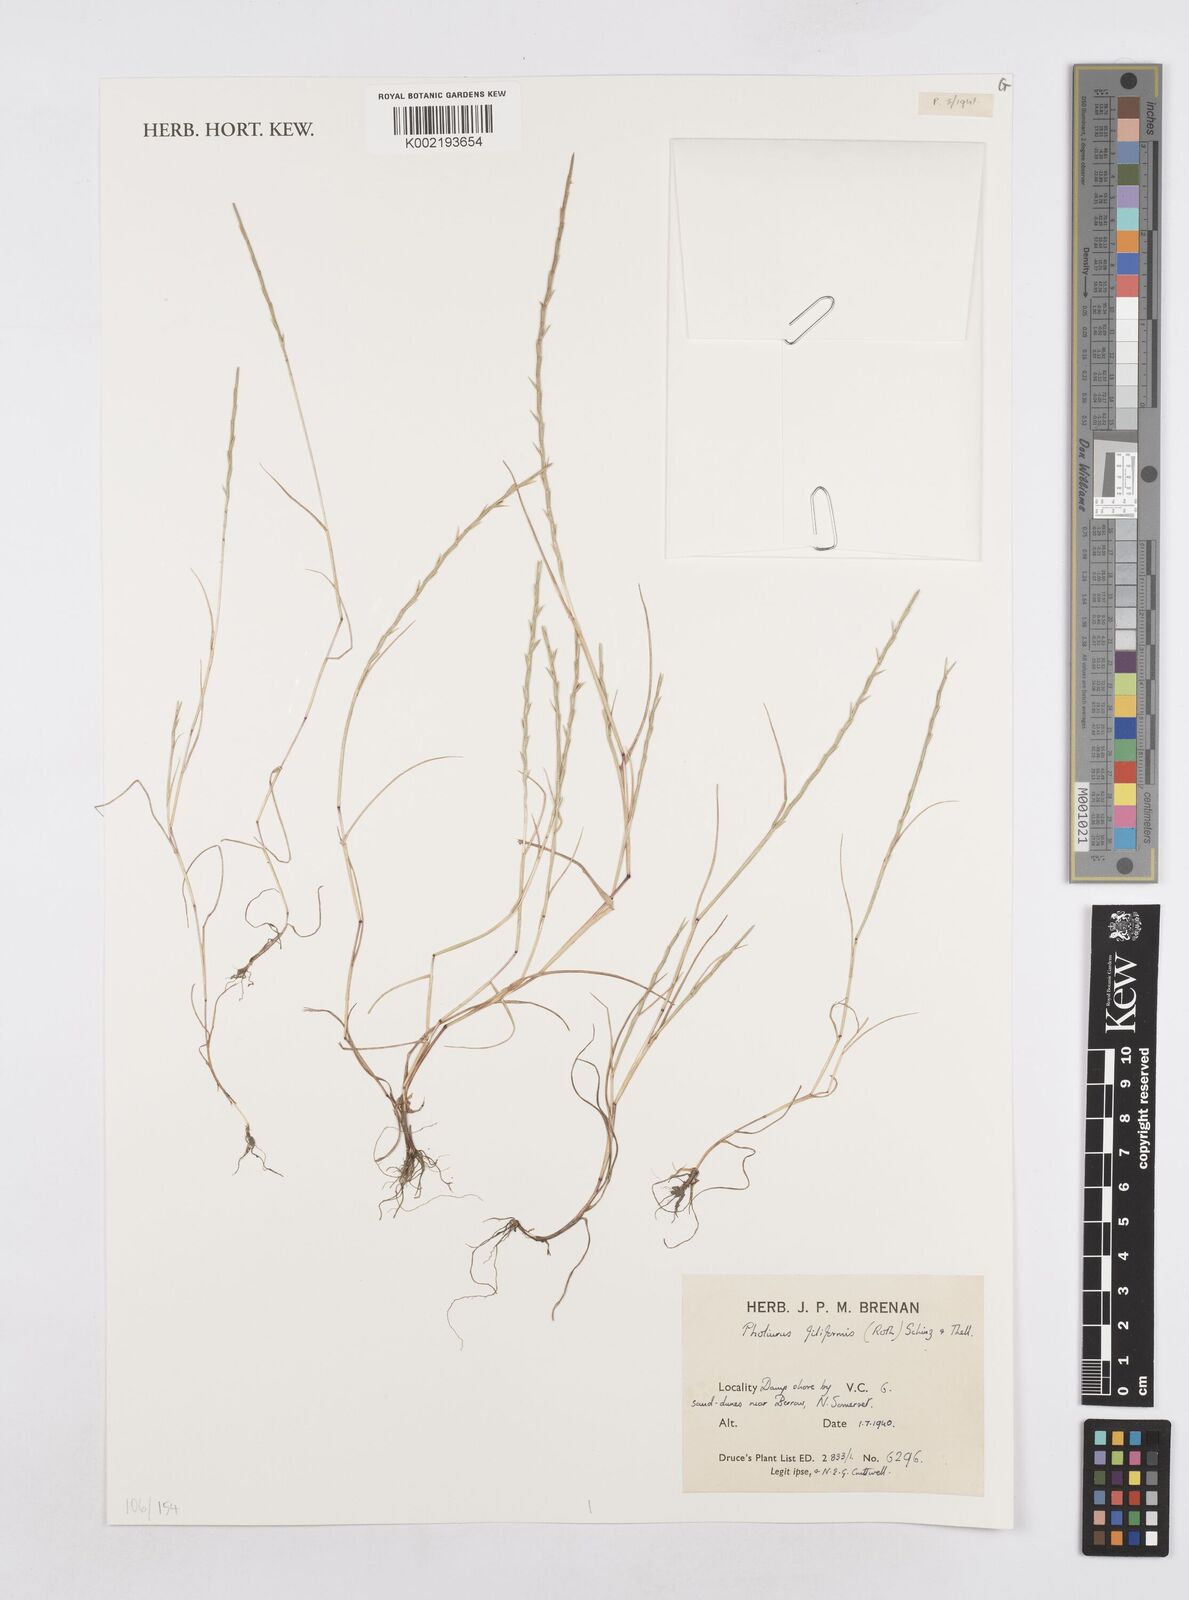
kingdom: Plantae
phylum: Tracheophyta
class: Liliopsida
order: Poales
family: Poaceae
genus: Parapholis
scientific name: Parapholis strigosa
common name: Hard-grass
